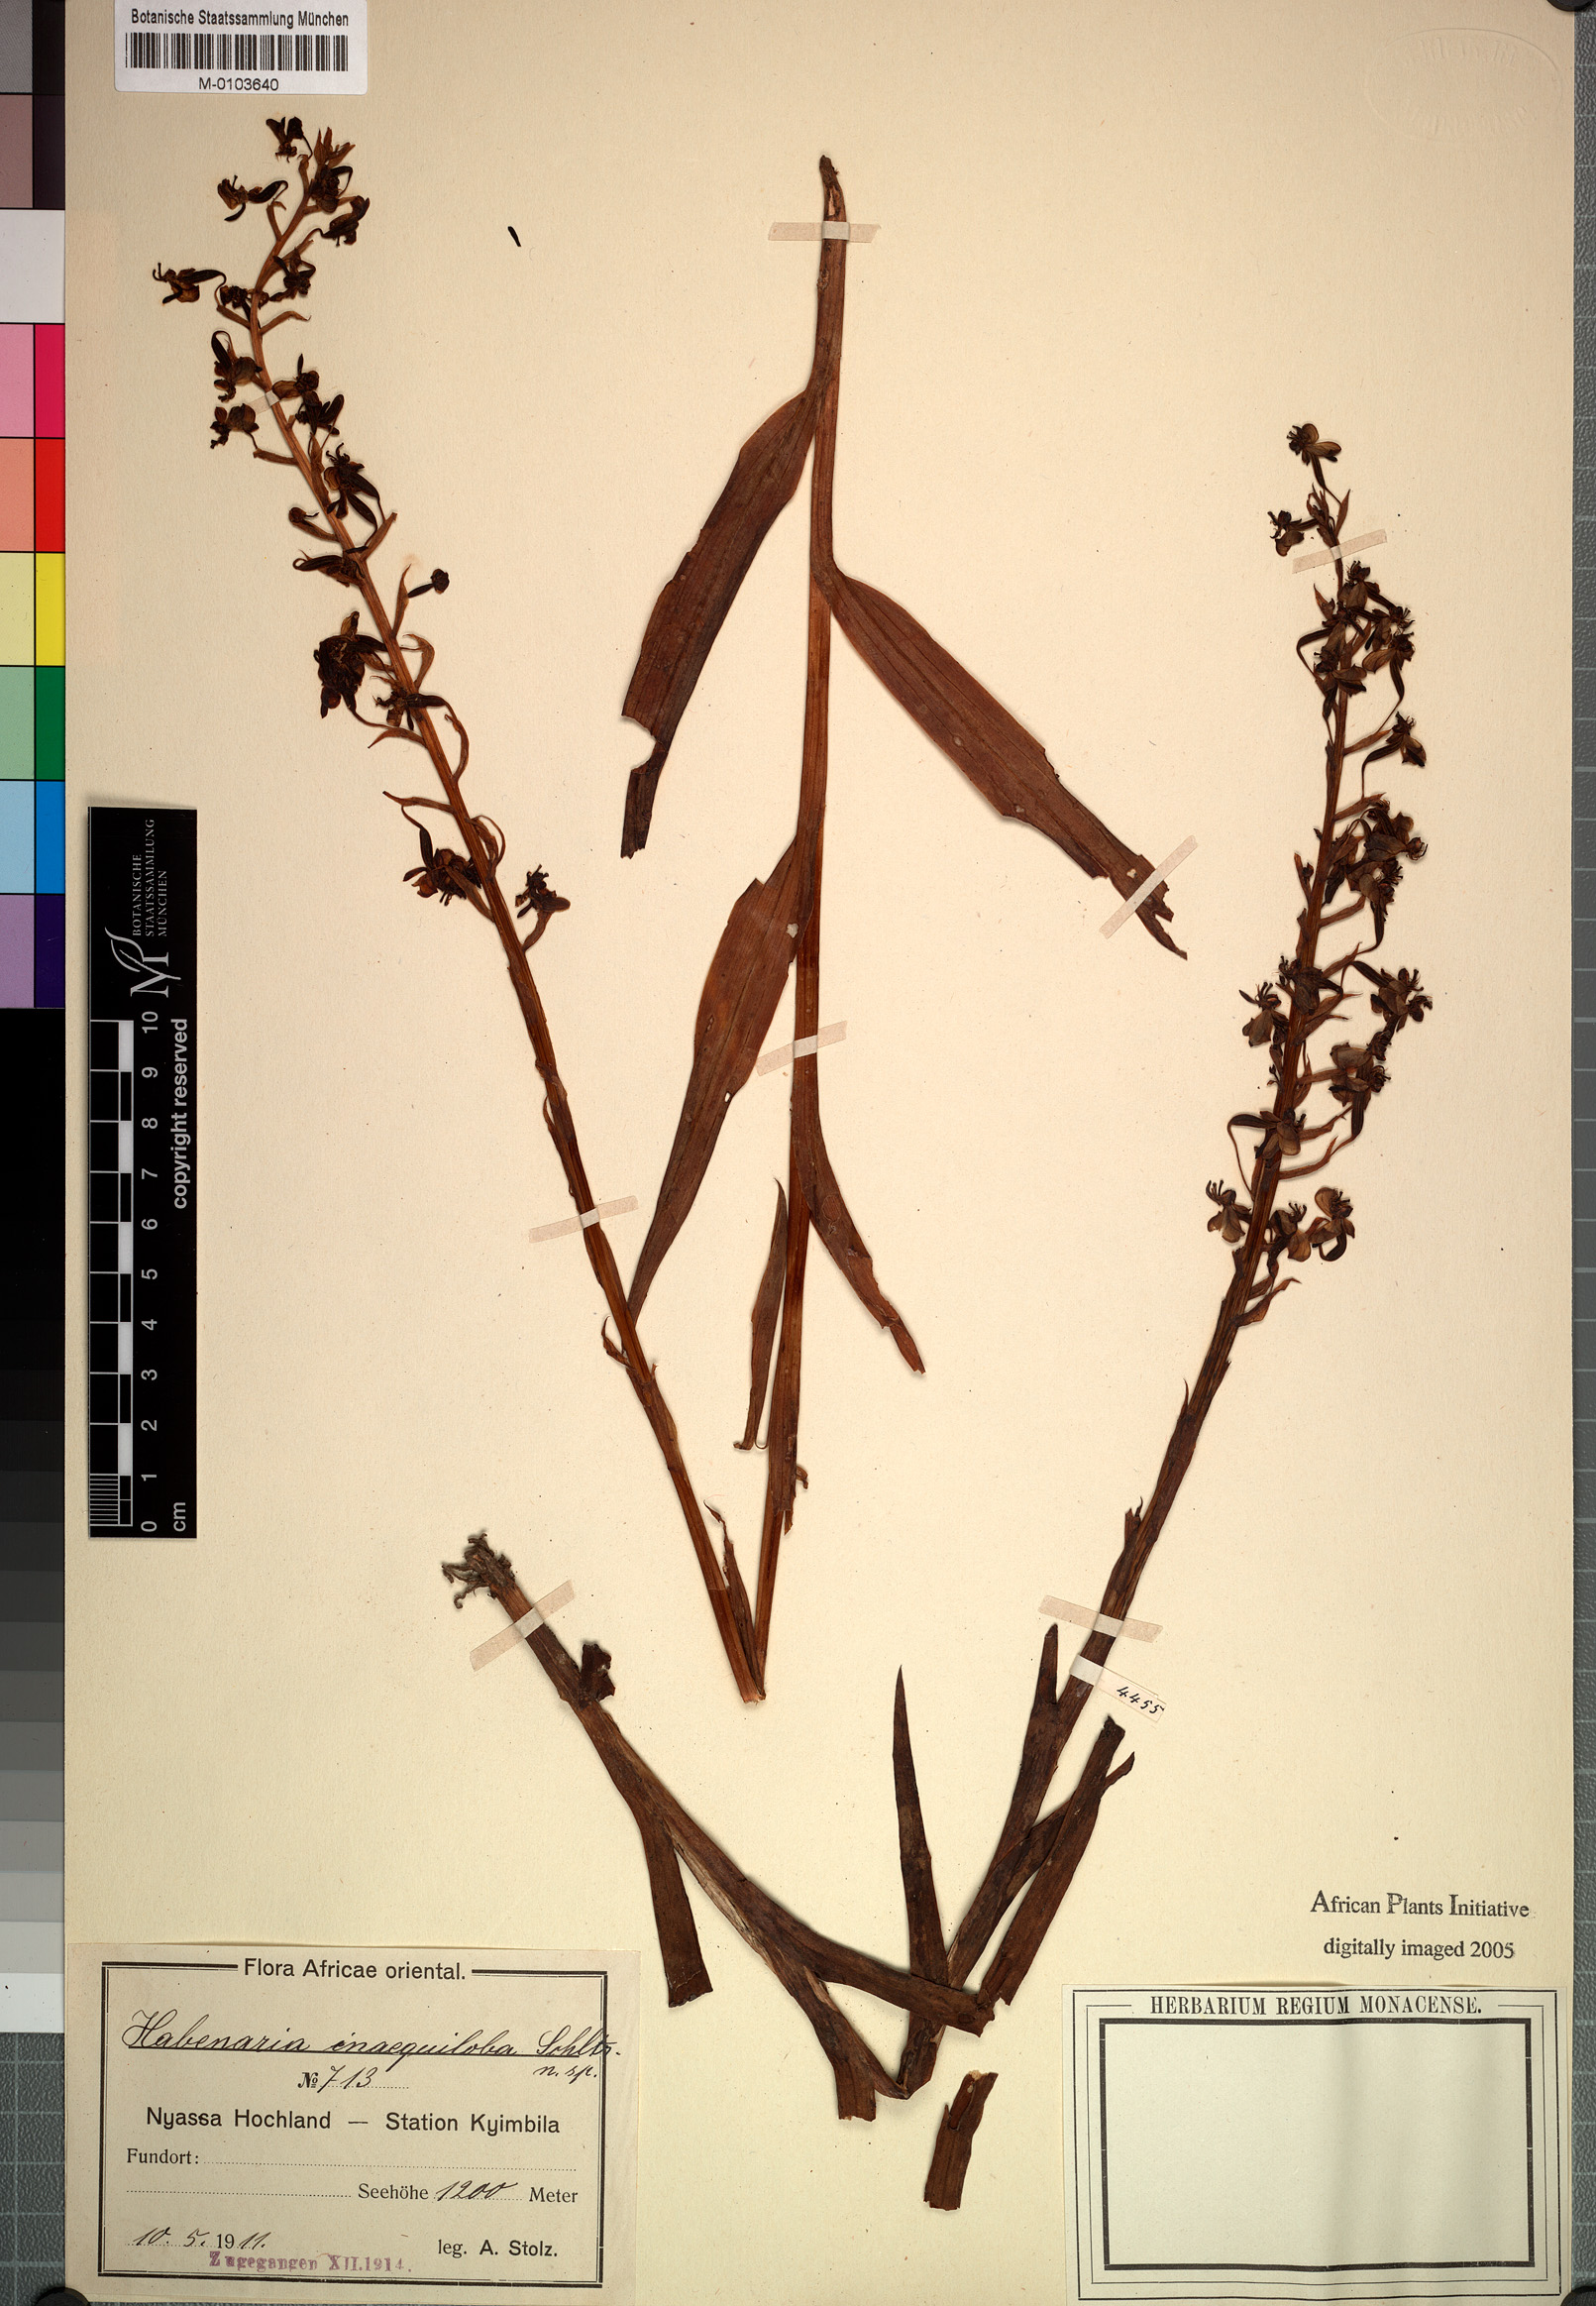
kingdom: Plantae
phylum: Tracheophyta
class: Liliopsida
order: Asparagales
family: Orchidaceae
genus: Habenaria
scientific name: Habenaria inaequiloba
